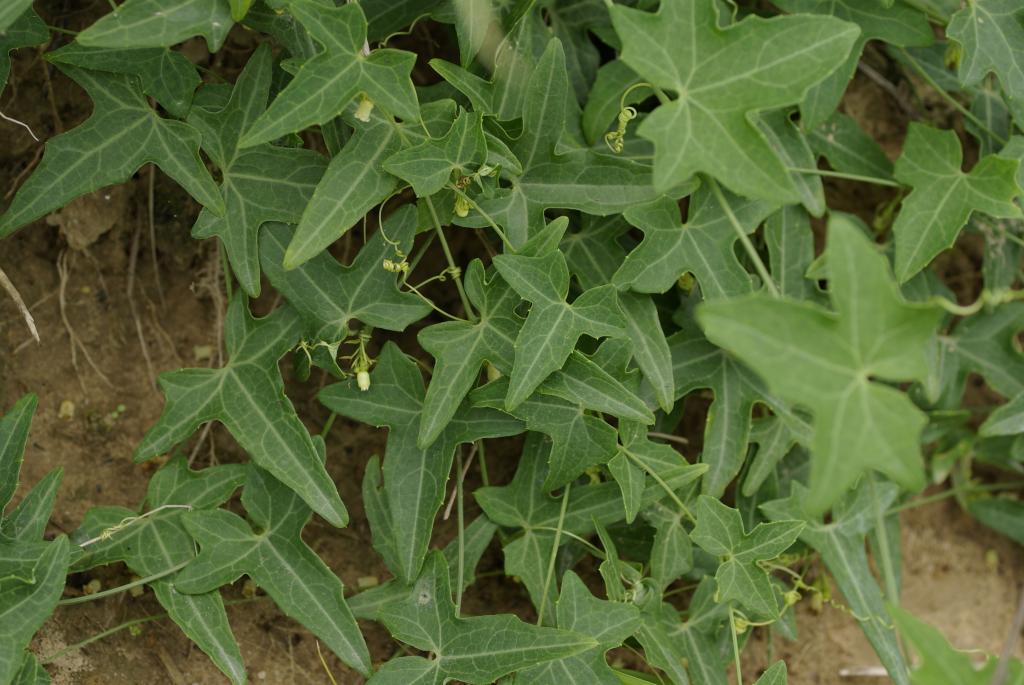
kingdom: Plantae
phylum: Tracheophyta
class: Magnoliopsida
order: Cucurbitales
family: Cucurbitaceae
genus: Solena
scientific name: Solena amplexicaulis
